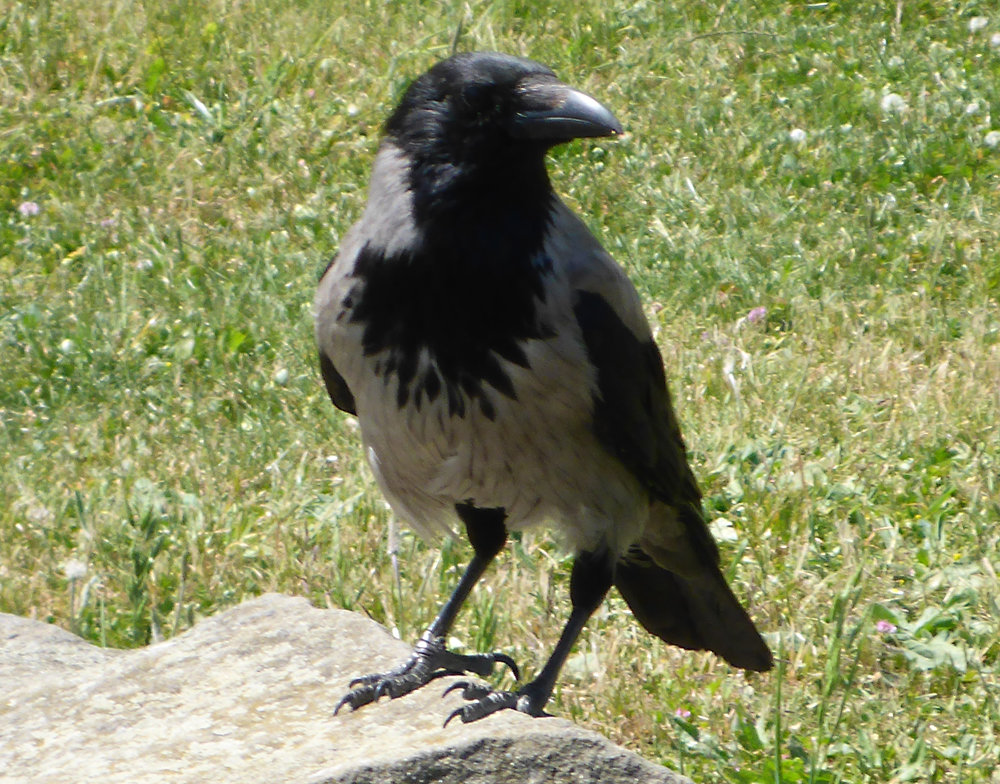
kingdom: Animalia
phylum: Chordata
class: Aves
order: Passeriformes
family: Corvidae
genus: Corvus
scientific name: Corvus cornix
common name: Hooded crow
